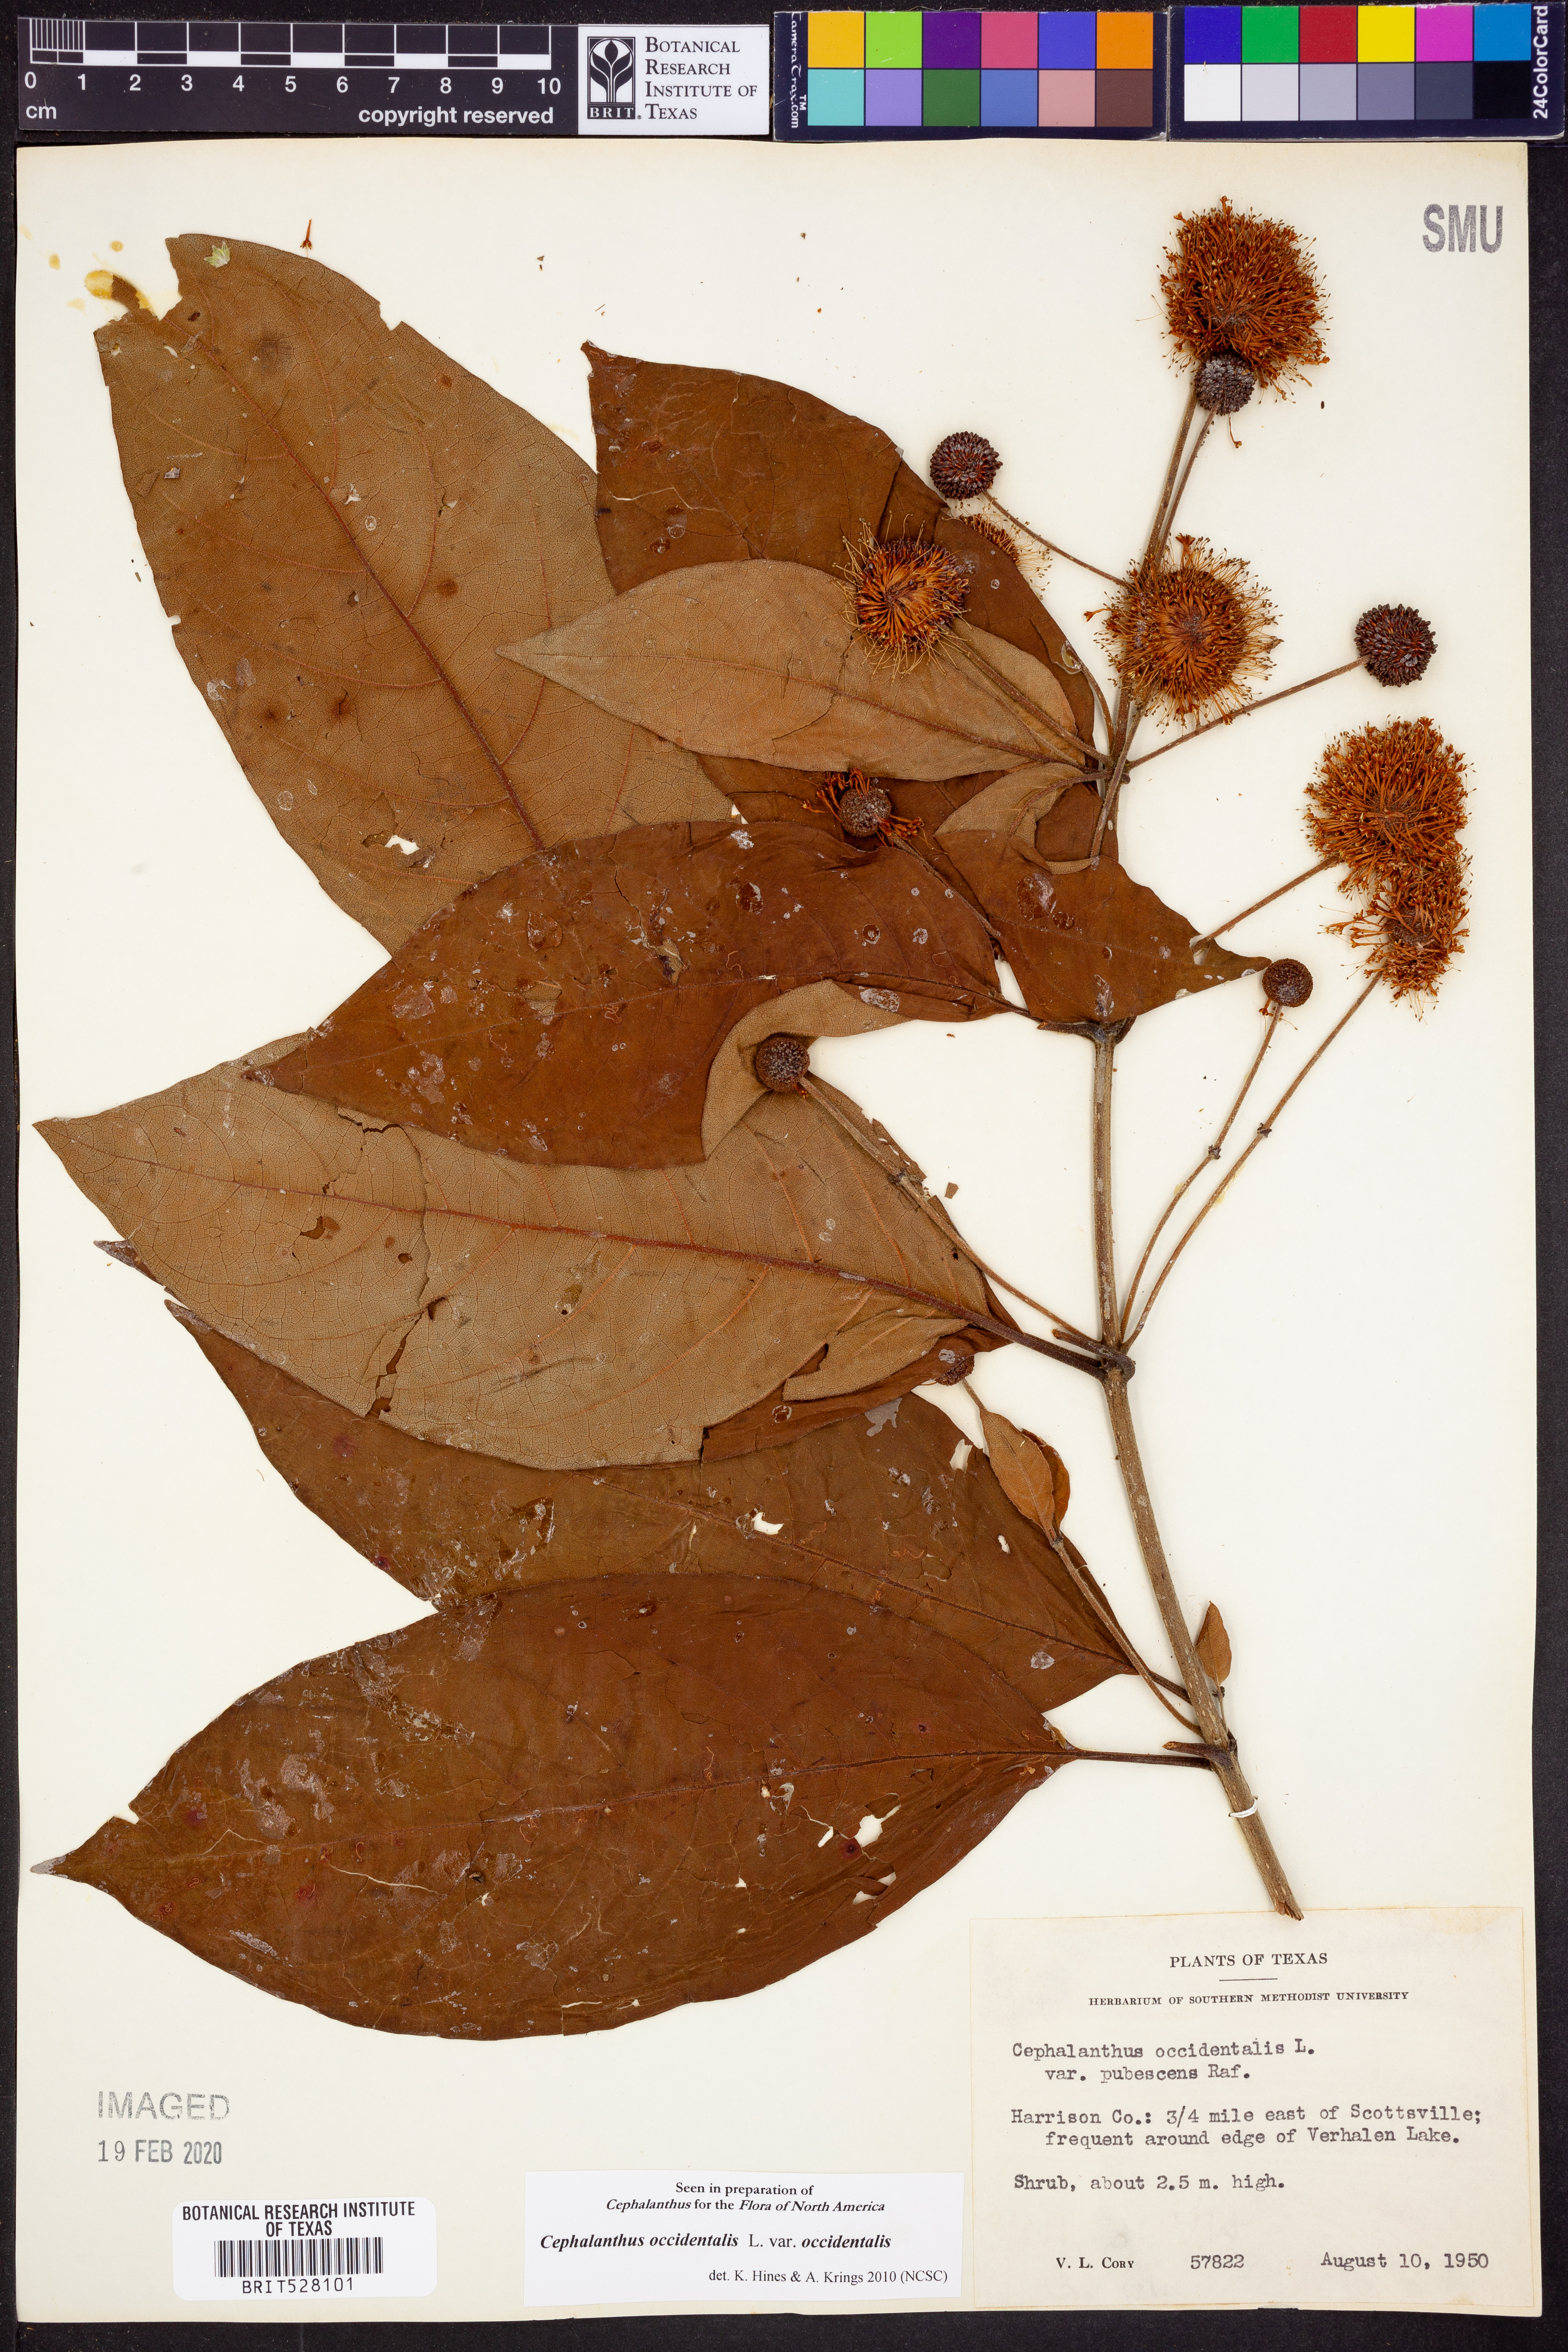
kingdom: Plantae
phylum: Tracheophyta
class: Magnoliopsida
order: Gentianales
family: Rubiaceae
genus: Cephalanthus
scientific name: Cephalanthus occidentalis
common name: Button-willow
